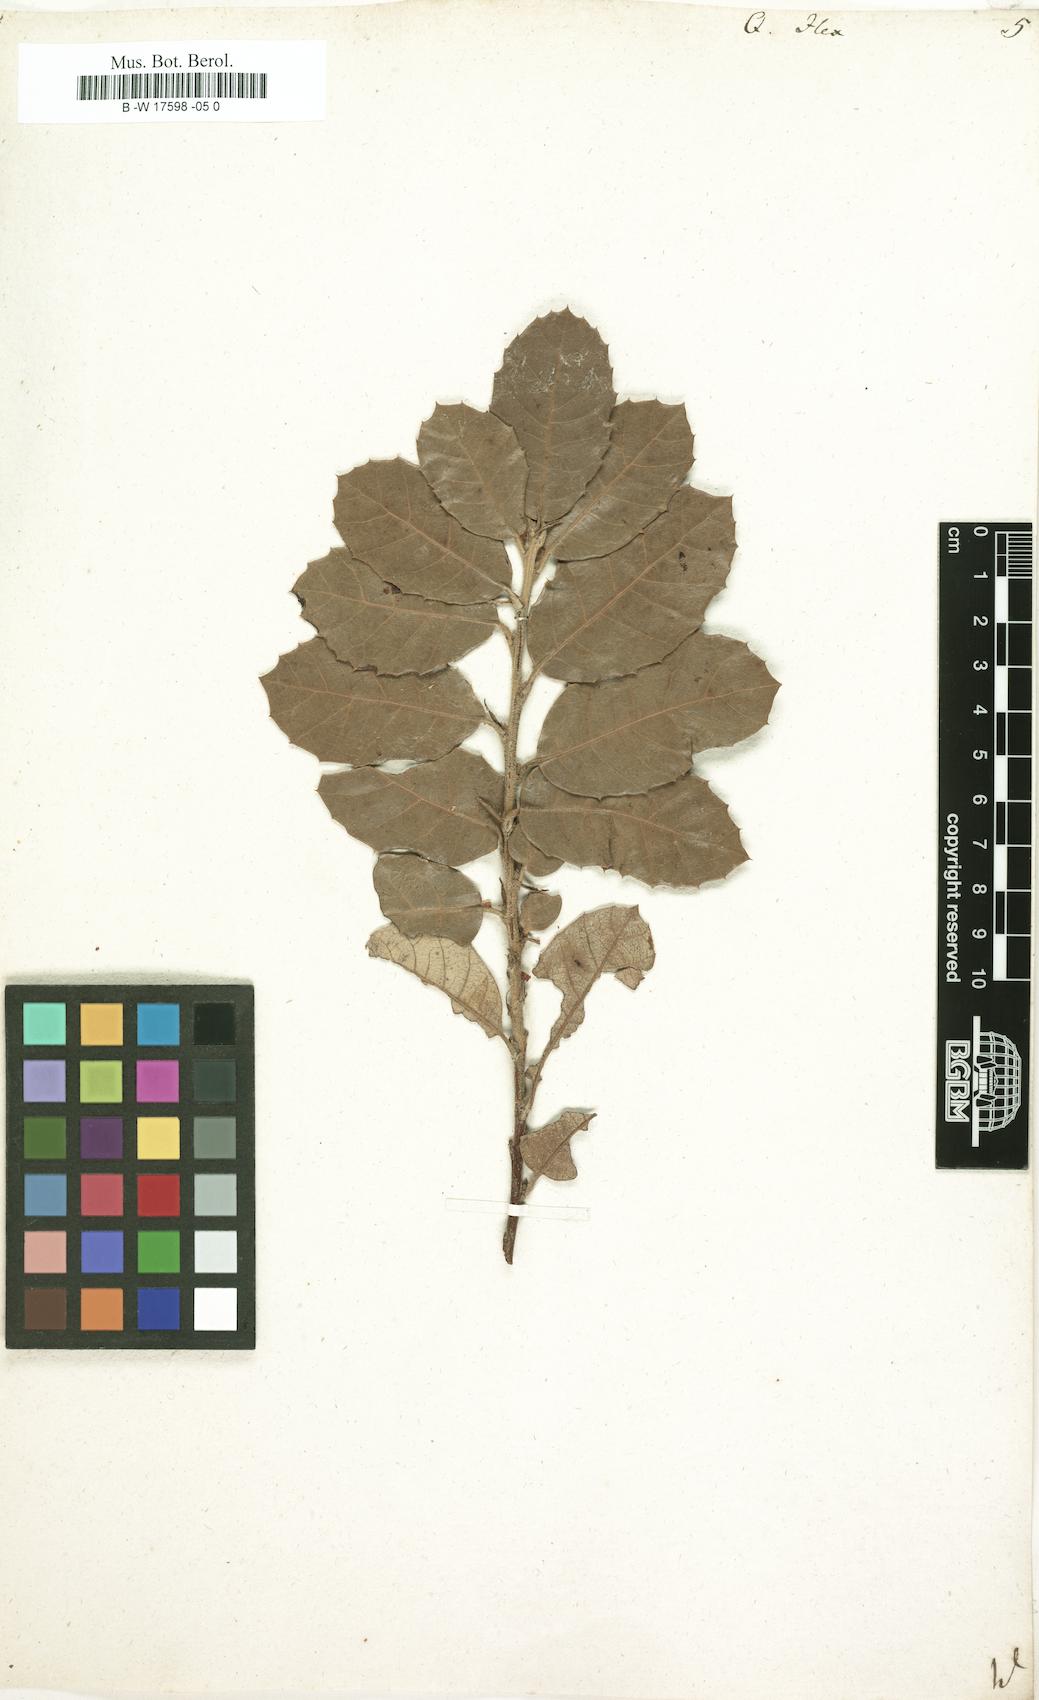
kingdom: Plantae
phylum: Tracheophyta
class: Magnoliopsida
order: Fagales
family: Fagaceae
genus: Quercus
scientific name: Quercus ilex
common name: Evergreen oak
